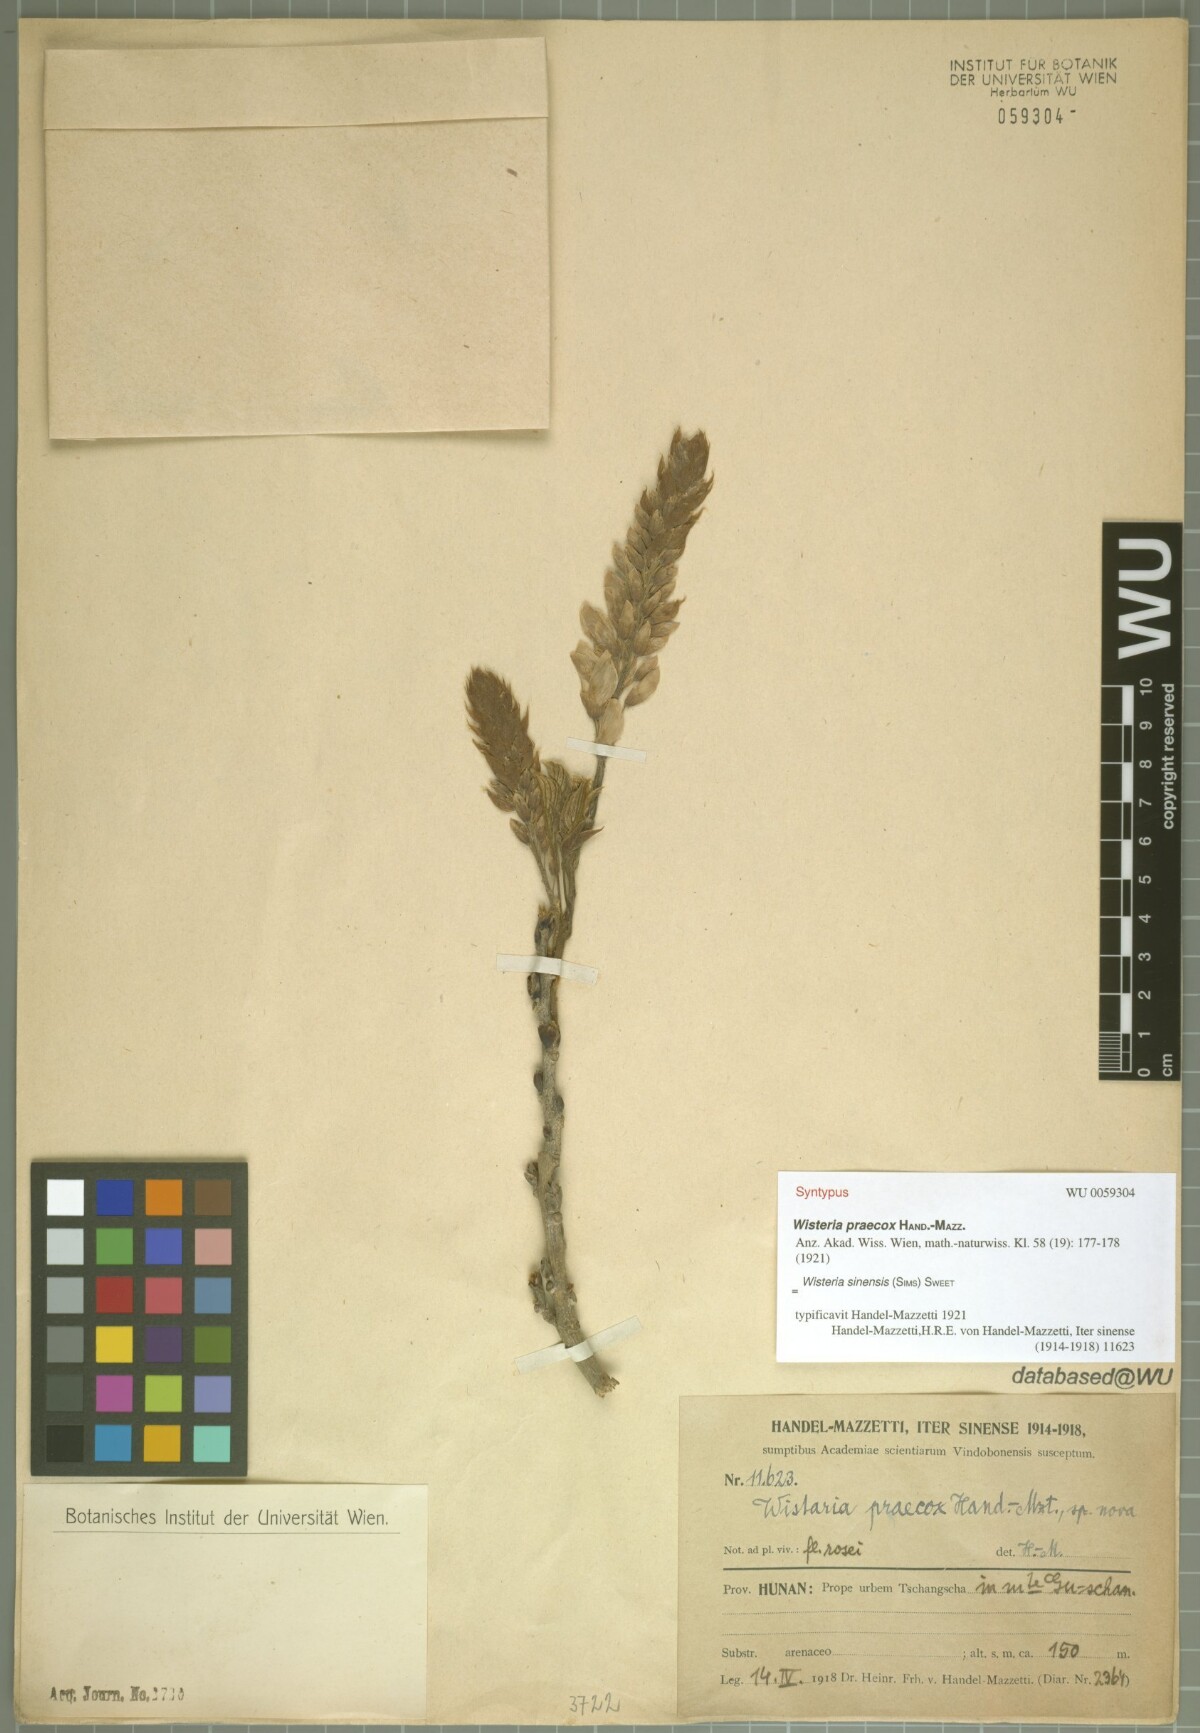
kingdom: Plantae
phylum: Tracheophyta
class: Magnoliopsida
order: Fabales
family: Fabaceae
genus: Wisteria
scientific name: Wisteria sinensis
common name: Chinese wisteria
